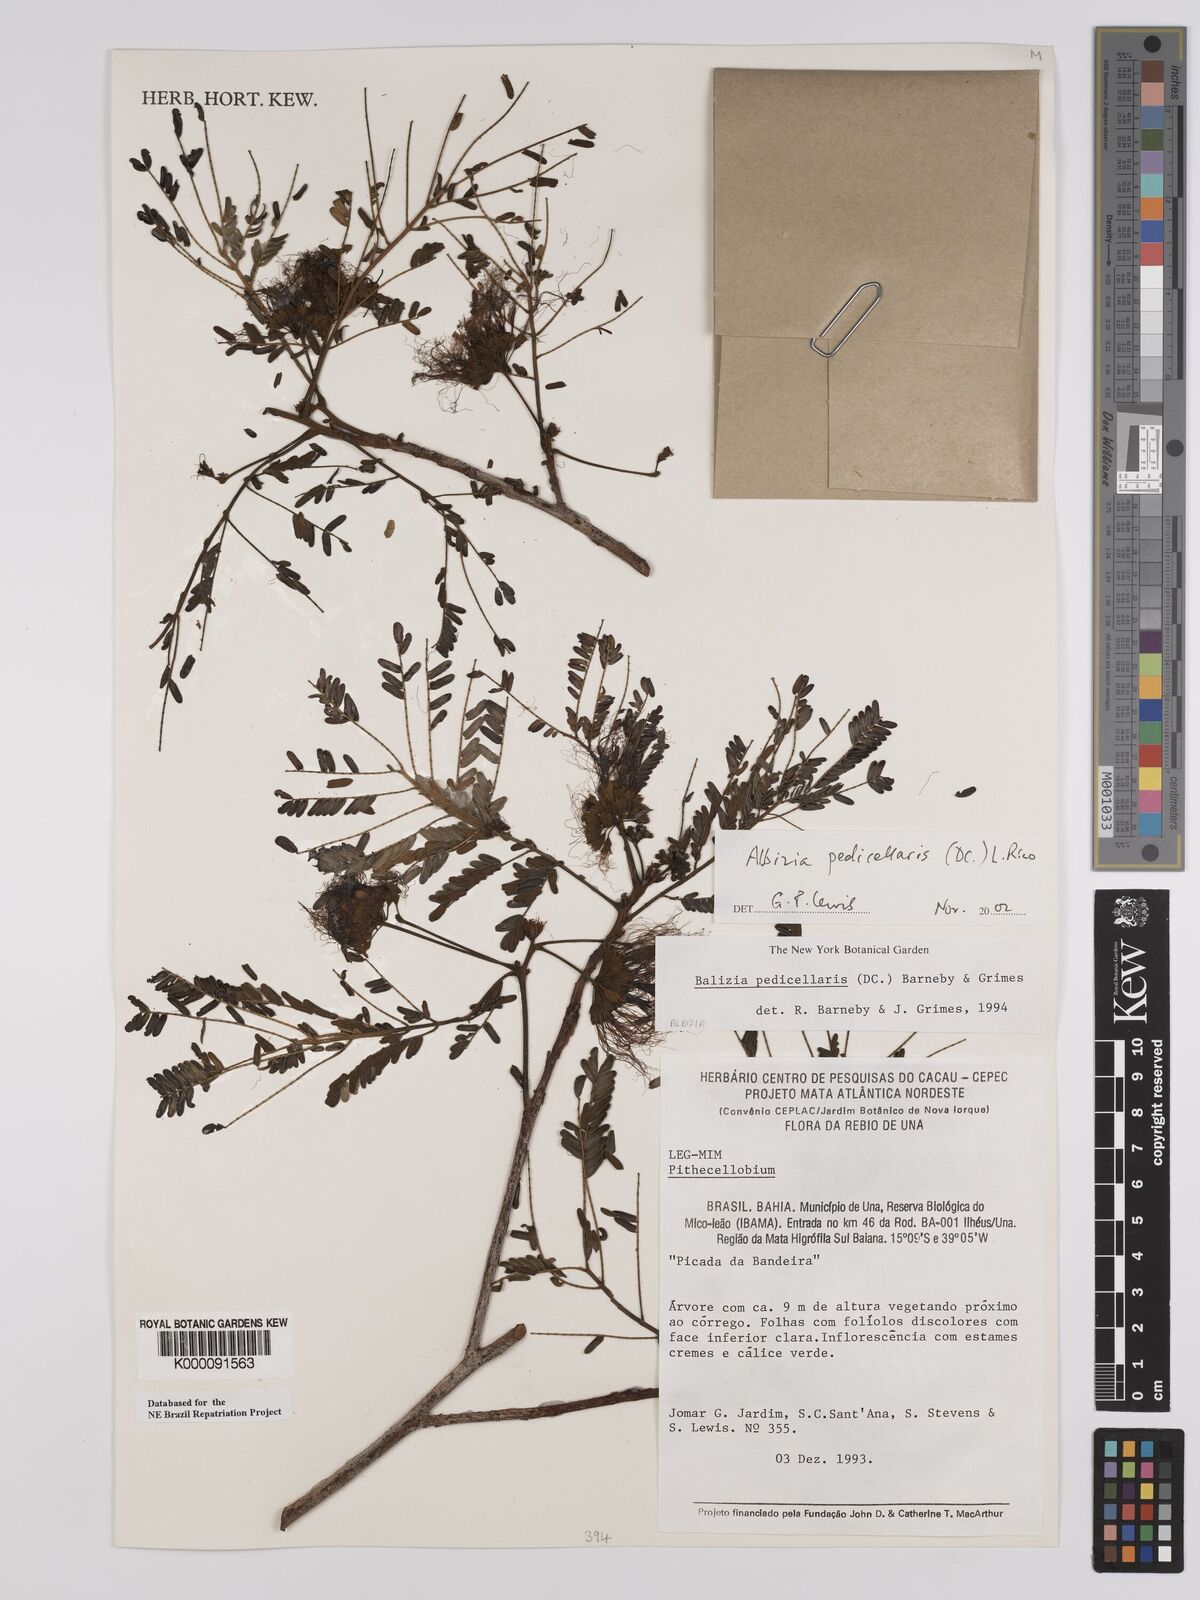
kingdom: Plantae
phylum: Tracheophyta
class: Magnoliopsida
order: Fabales
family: Fabaceae
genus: Balizia
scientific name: Balizia pedicellaris
